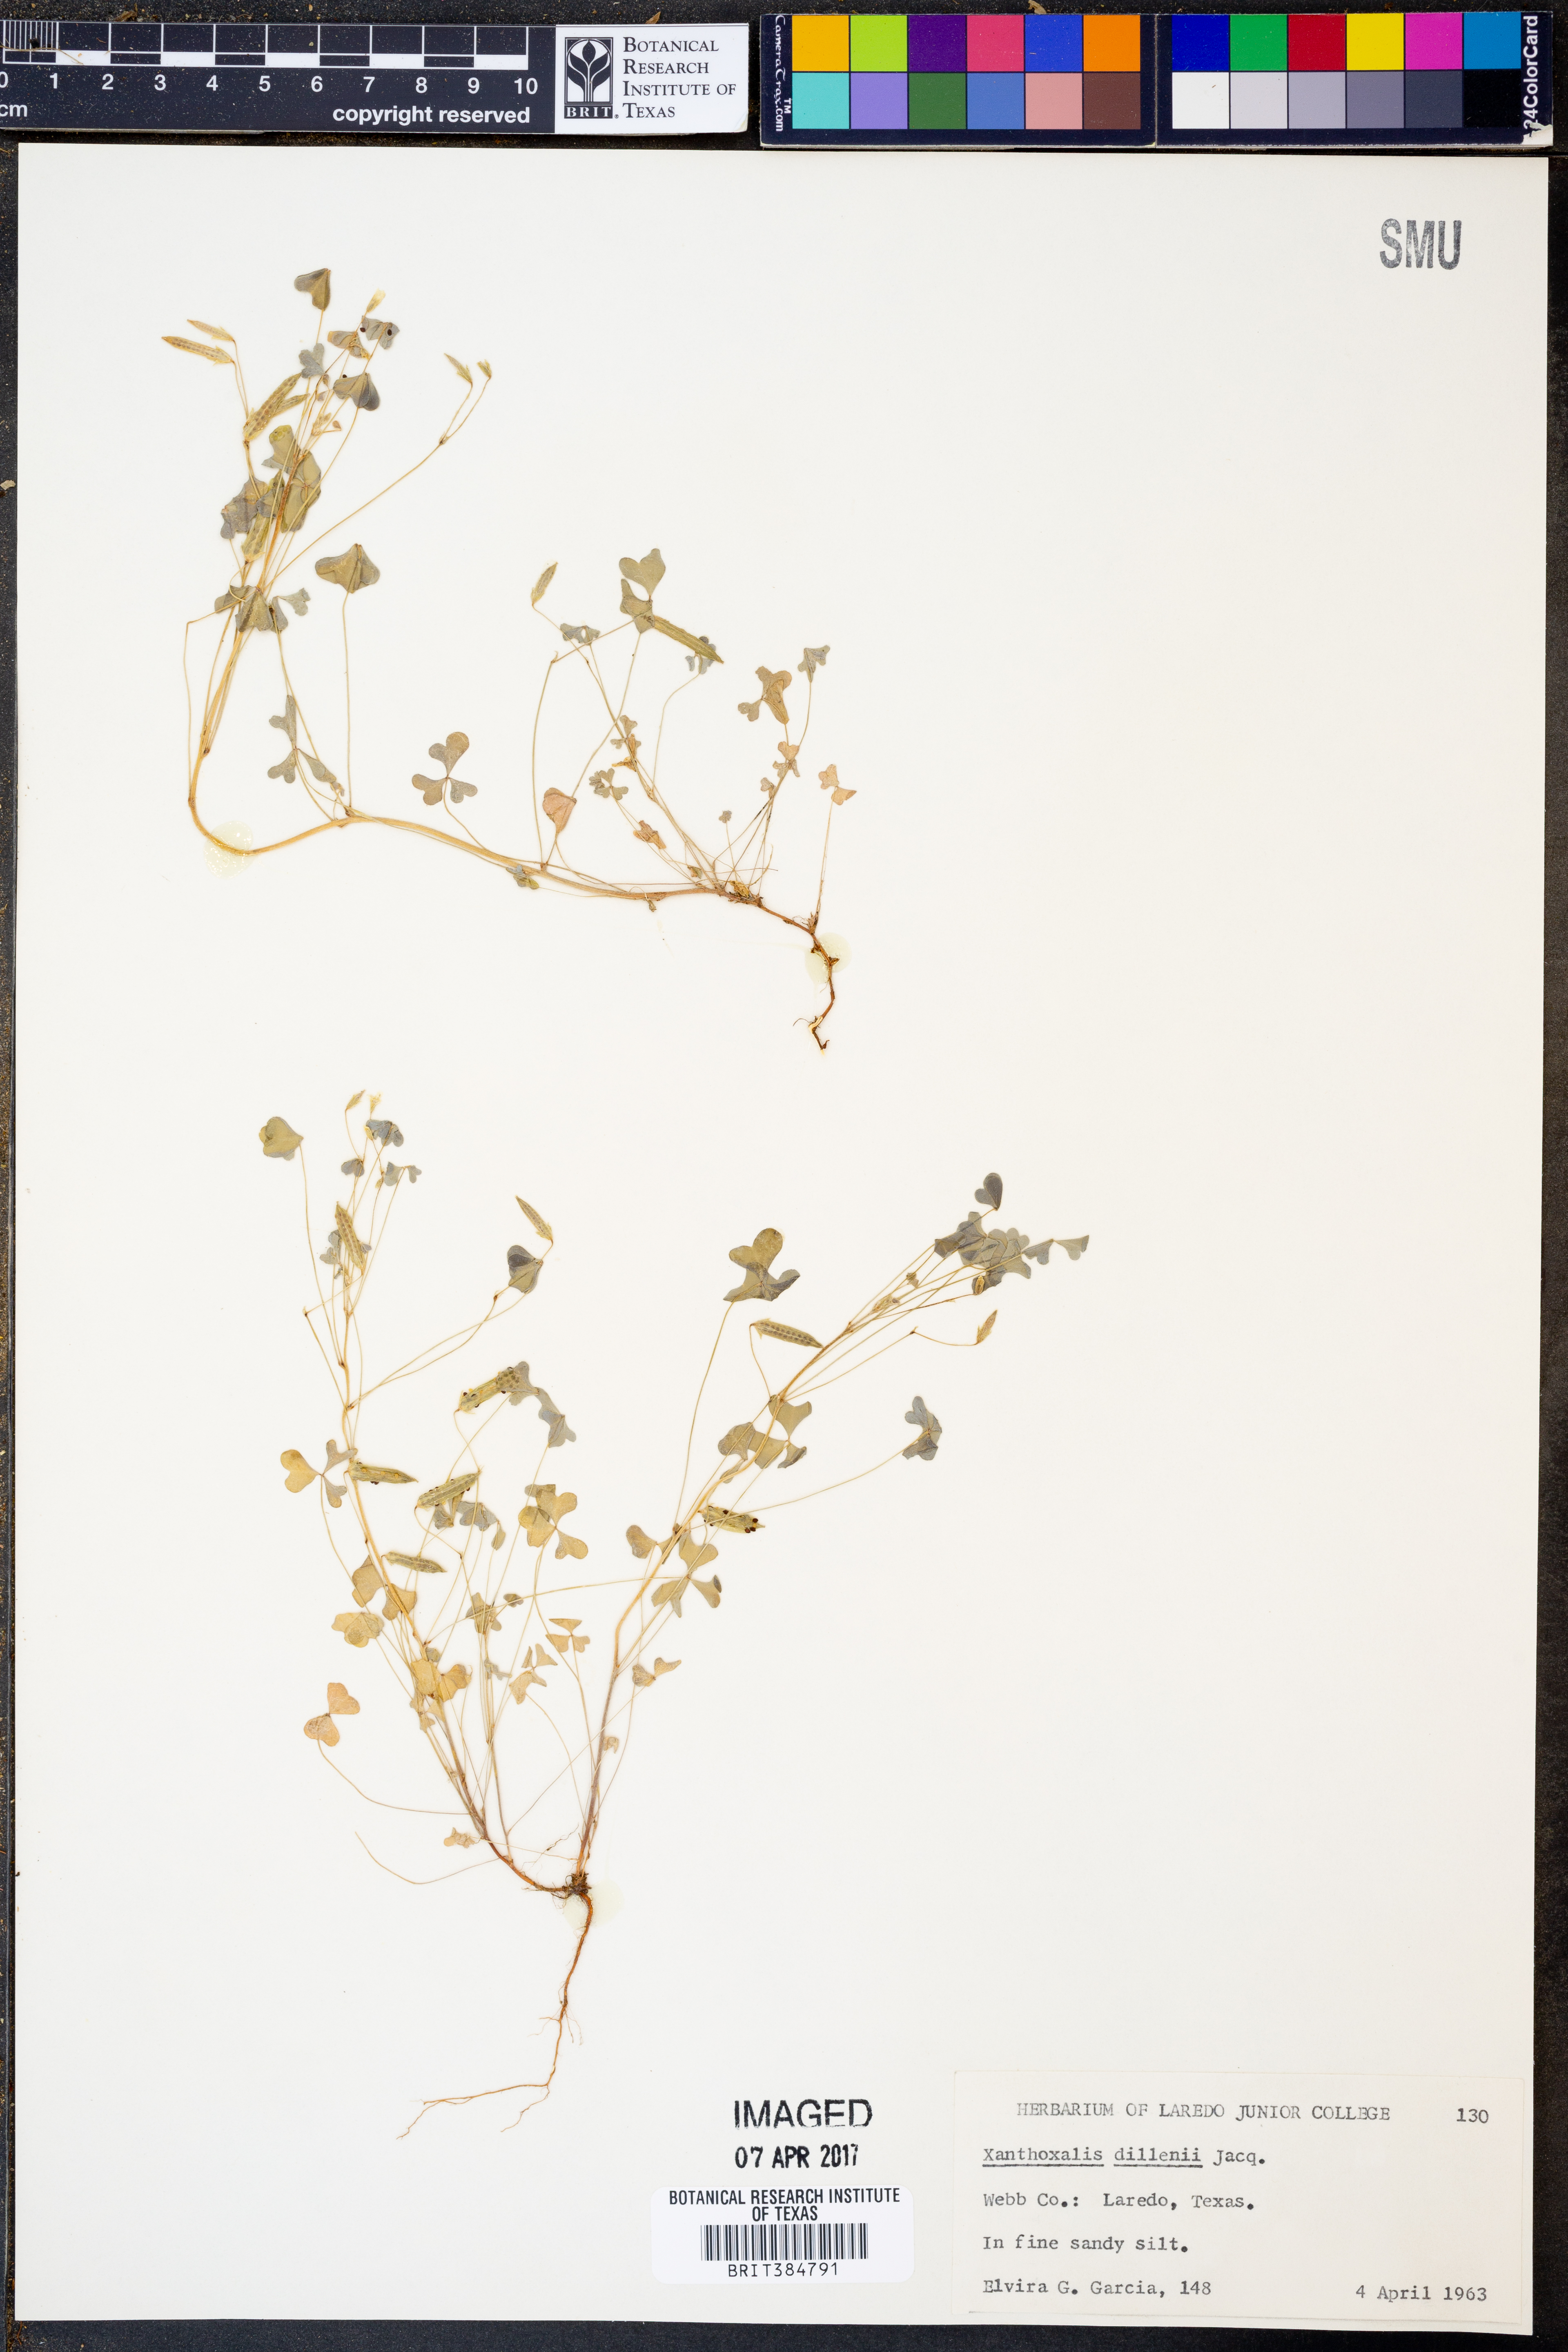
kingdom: Plantae
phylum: Tracheophyta
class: Magnoliopsida
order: Oxalidales
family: Oxalidaceae
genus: Oxalis
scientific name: Oxalis dillenii
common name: Sussex yellow-sorrel
